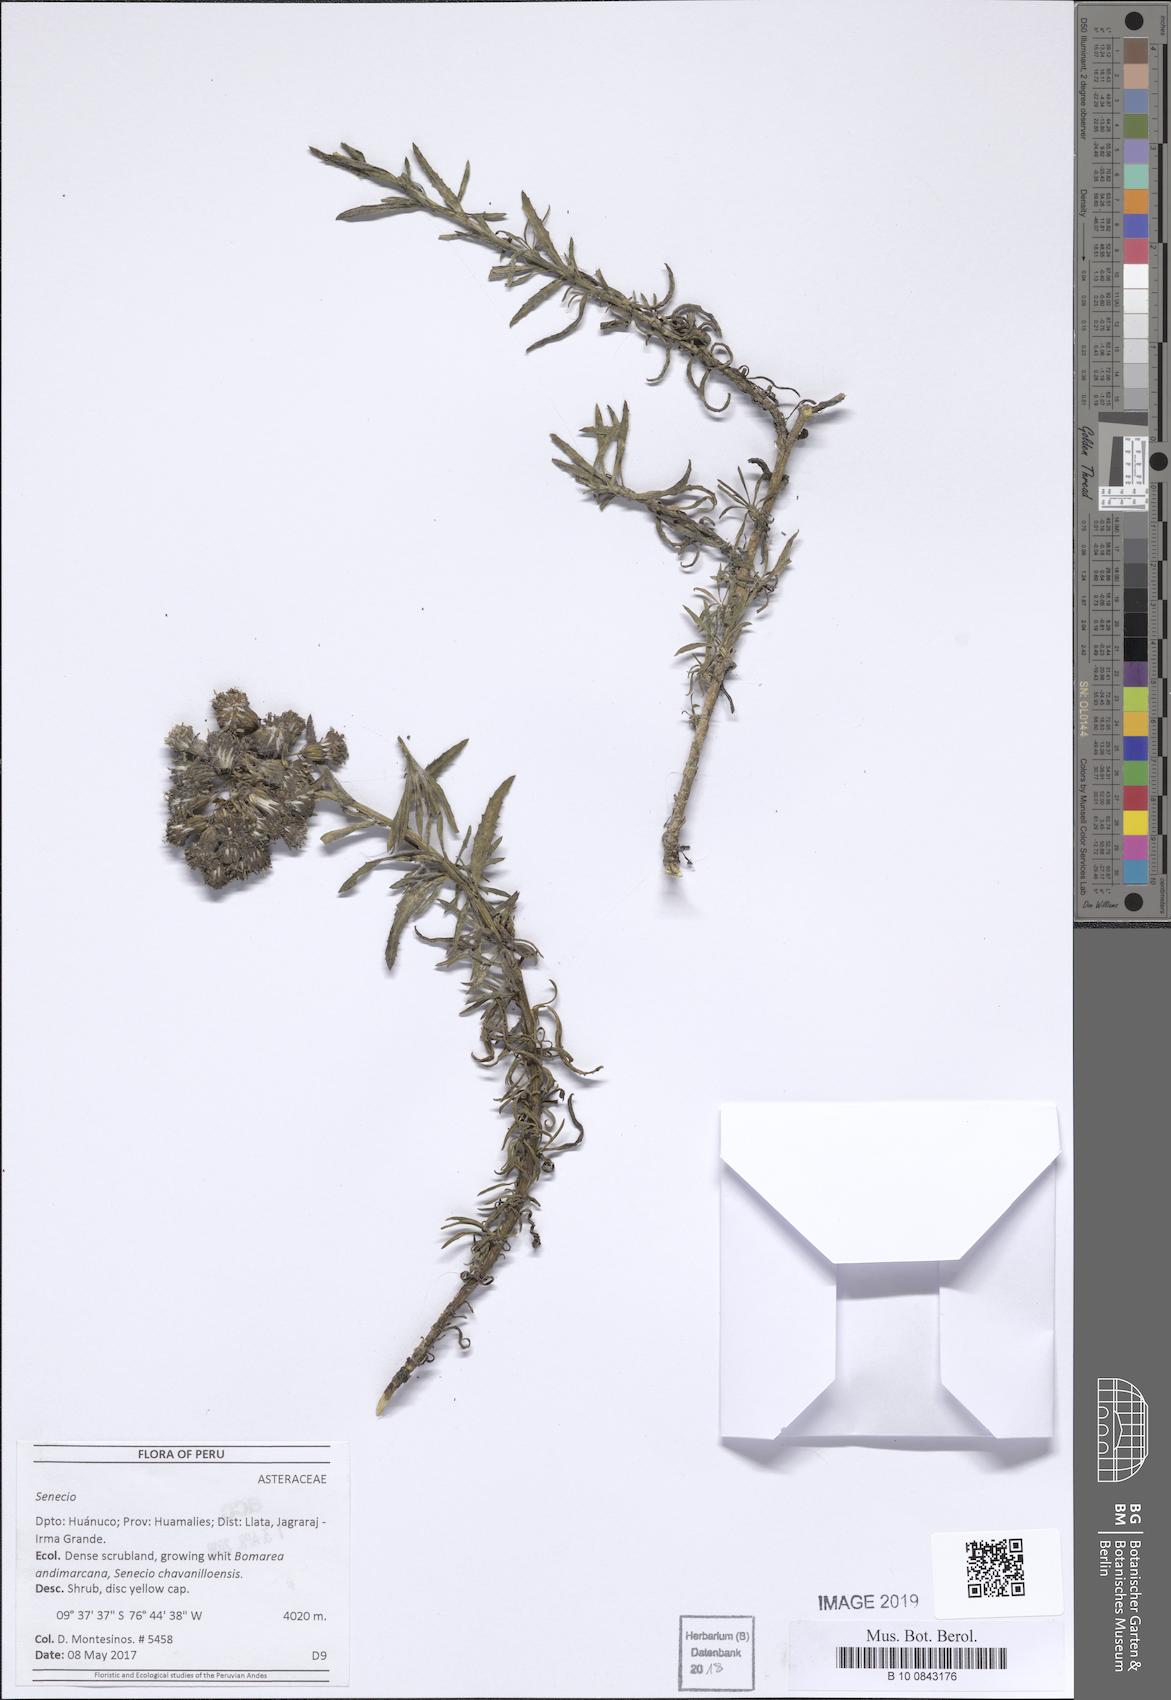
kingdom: Plantae
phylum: Tracheophyta
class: Magnoliopsida
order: Asterales
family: Asteraceae
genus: Senecio
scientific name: Senecio
